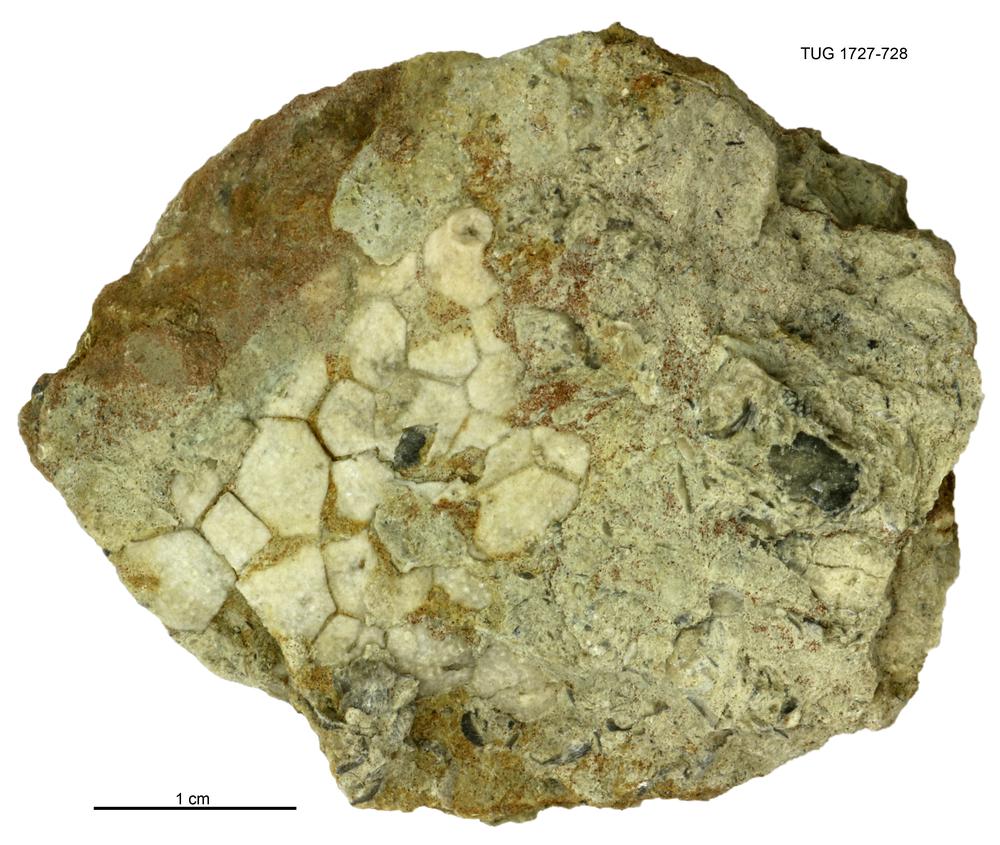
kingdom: Animalia
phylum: Echinodermata
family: Heckerocrinidae
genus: Heckerocrinus
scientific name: Heckerocrinus
